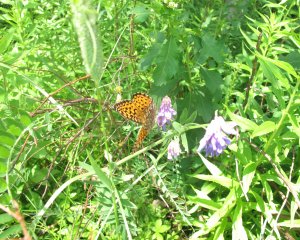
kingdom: Animalia
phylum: Arthropoda
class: Insecta
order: Lepidoptera
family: Nymphalidae
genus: Speyeria
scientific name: Speyeria atlantis
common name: Atlantis Fritillary
